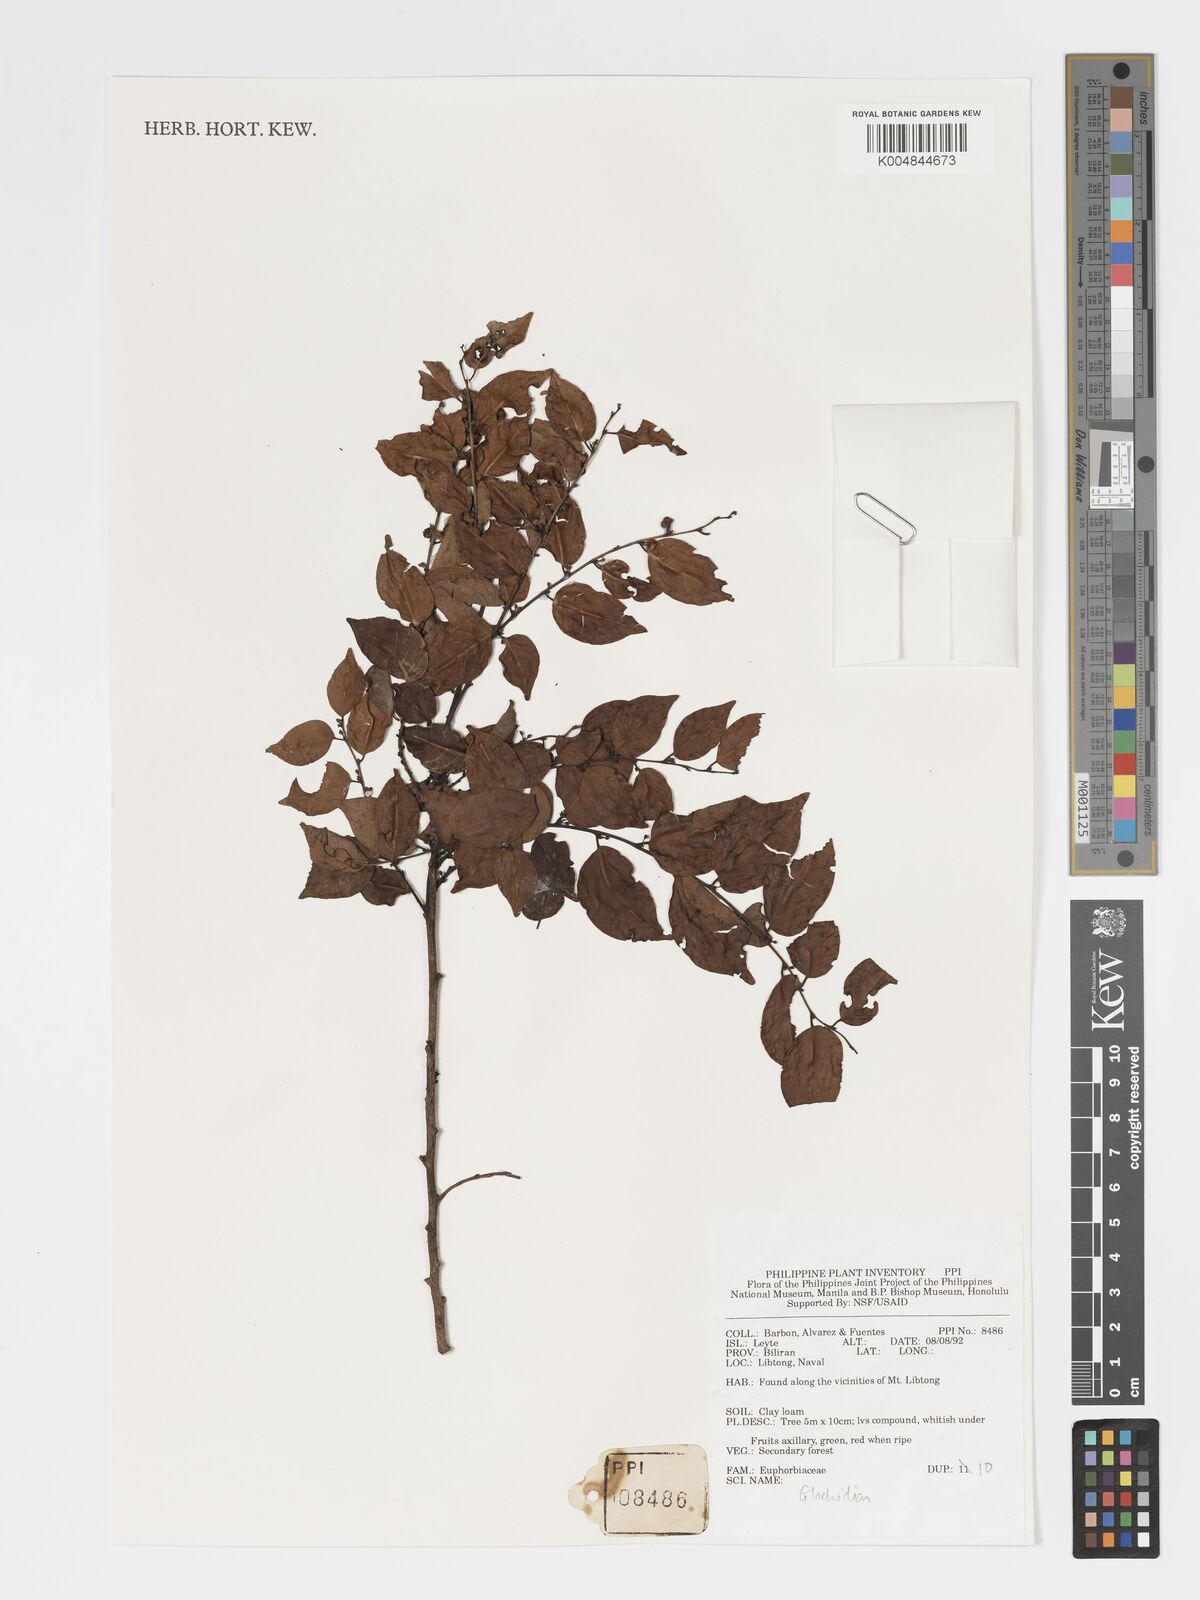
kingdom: Plantae
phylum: Tracheophyta
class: Magnoliopsida
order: Malpighiales
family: Phyllanthaceae
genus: Glochidion
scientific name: Glochidion
